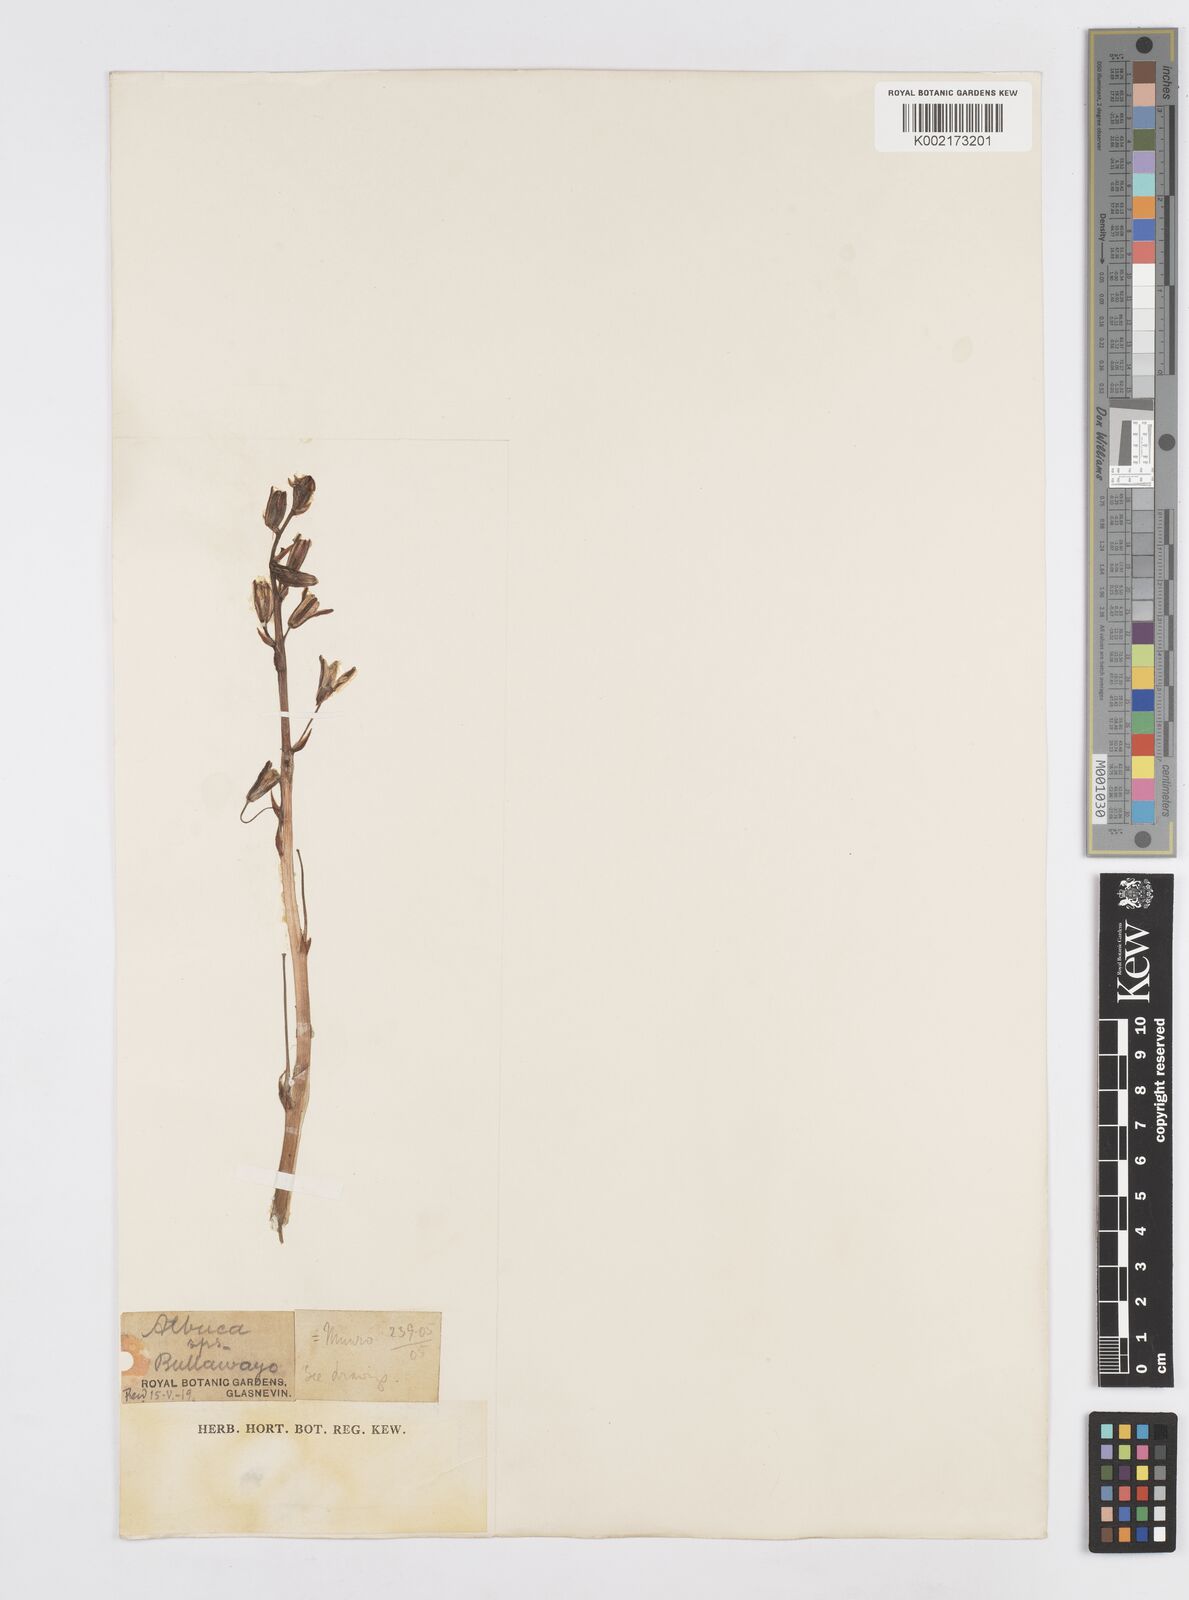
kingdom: Plantae
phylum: Tracheophyta
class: Liliopsida
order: Asparagales
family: Asparagaceae
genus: Albuca
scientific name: Albuca
